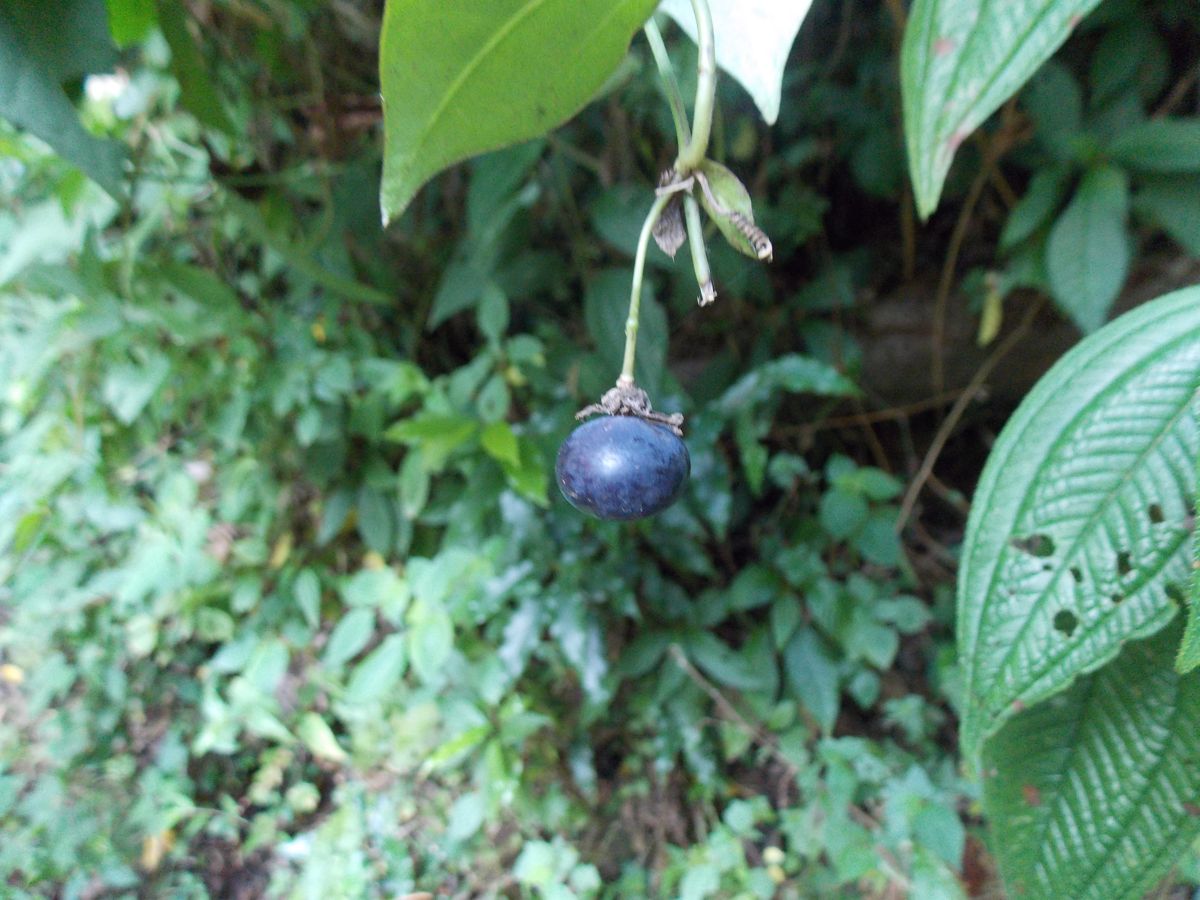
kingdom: Plantae
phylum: Tracheophyta
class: Magnoliopsida
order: Malpighiales
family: Passifloraceae
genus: Passiflora
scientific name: Passiflora eglandulosa
